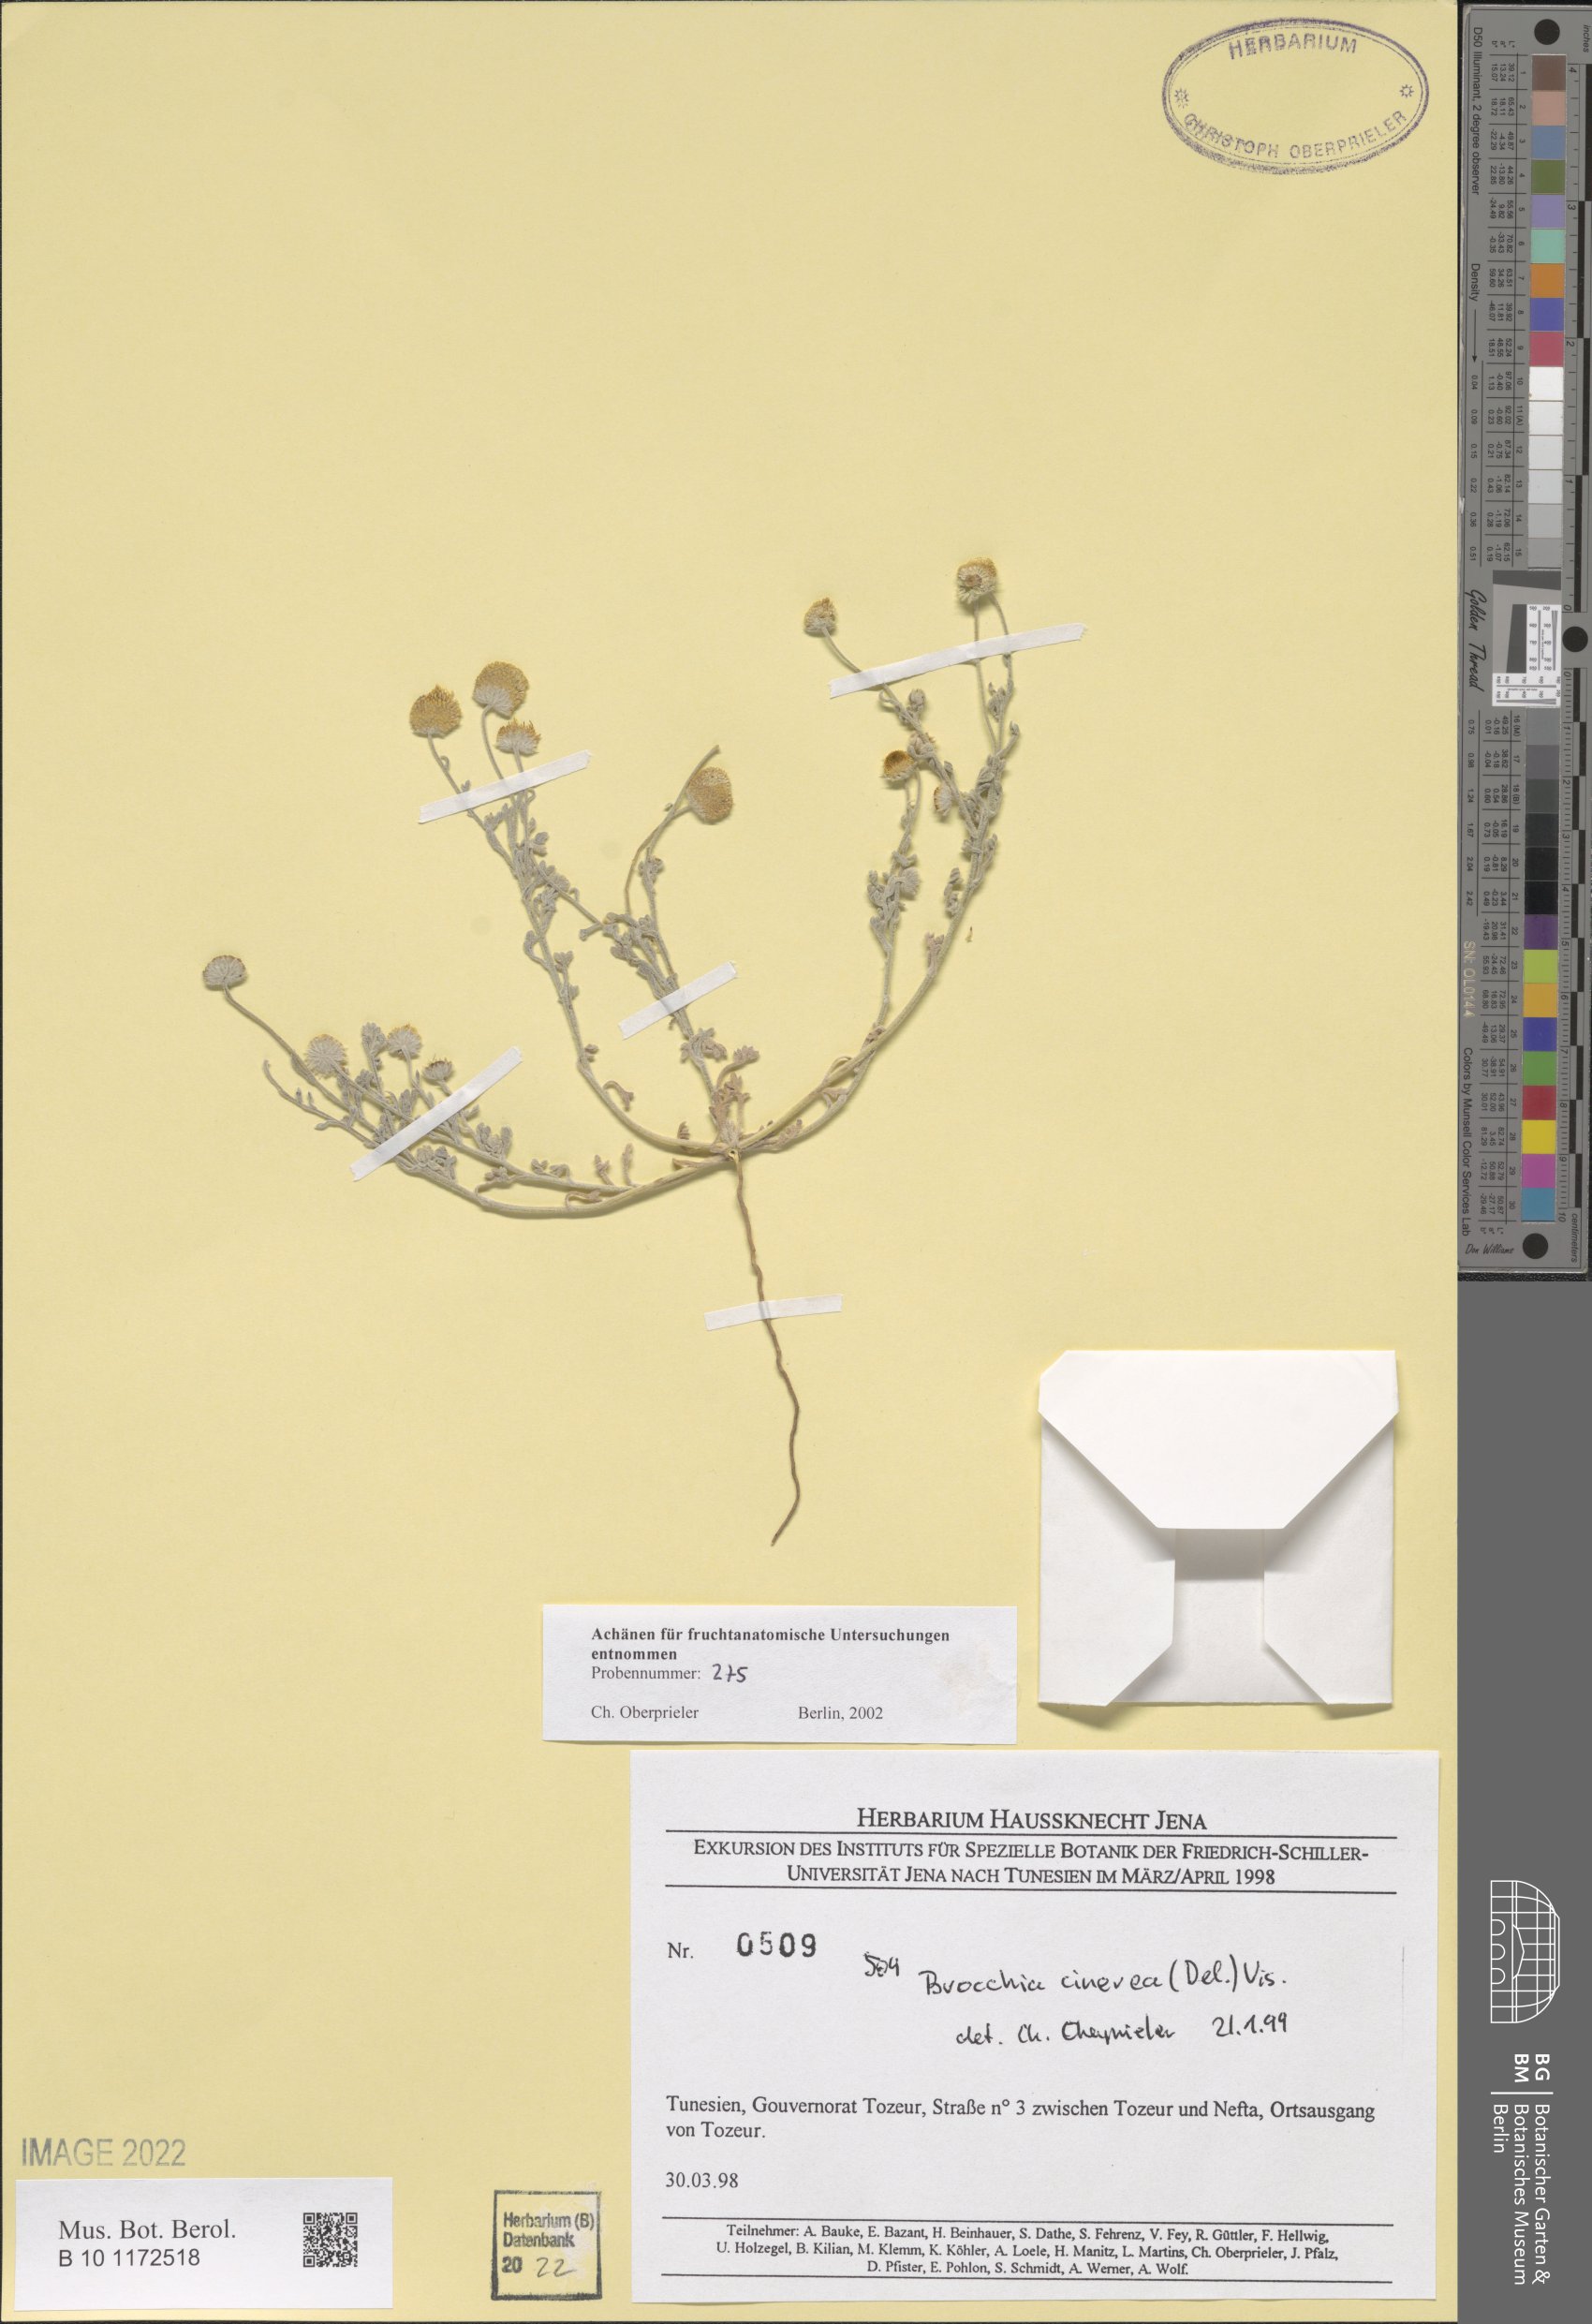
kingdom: Plantae
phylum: Tracheophyta
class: Magnoliopsida
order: Asterales
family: Asteraceae
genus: Brocchia
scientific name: Brocchia cinerea
